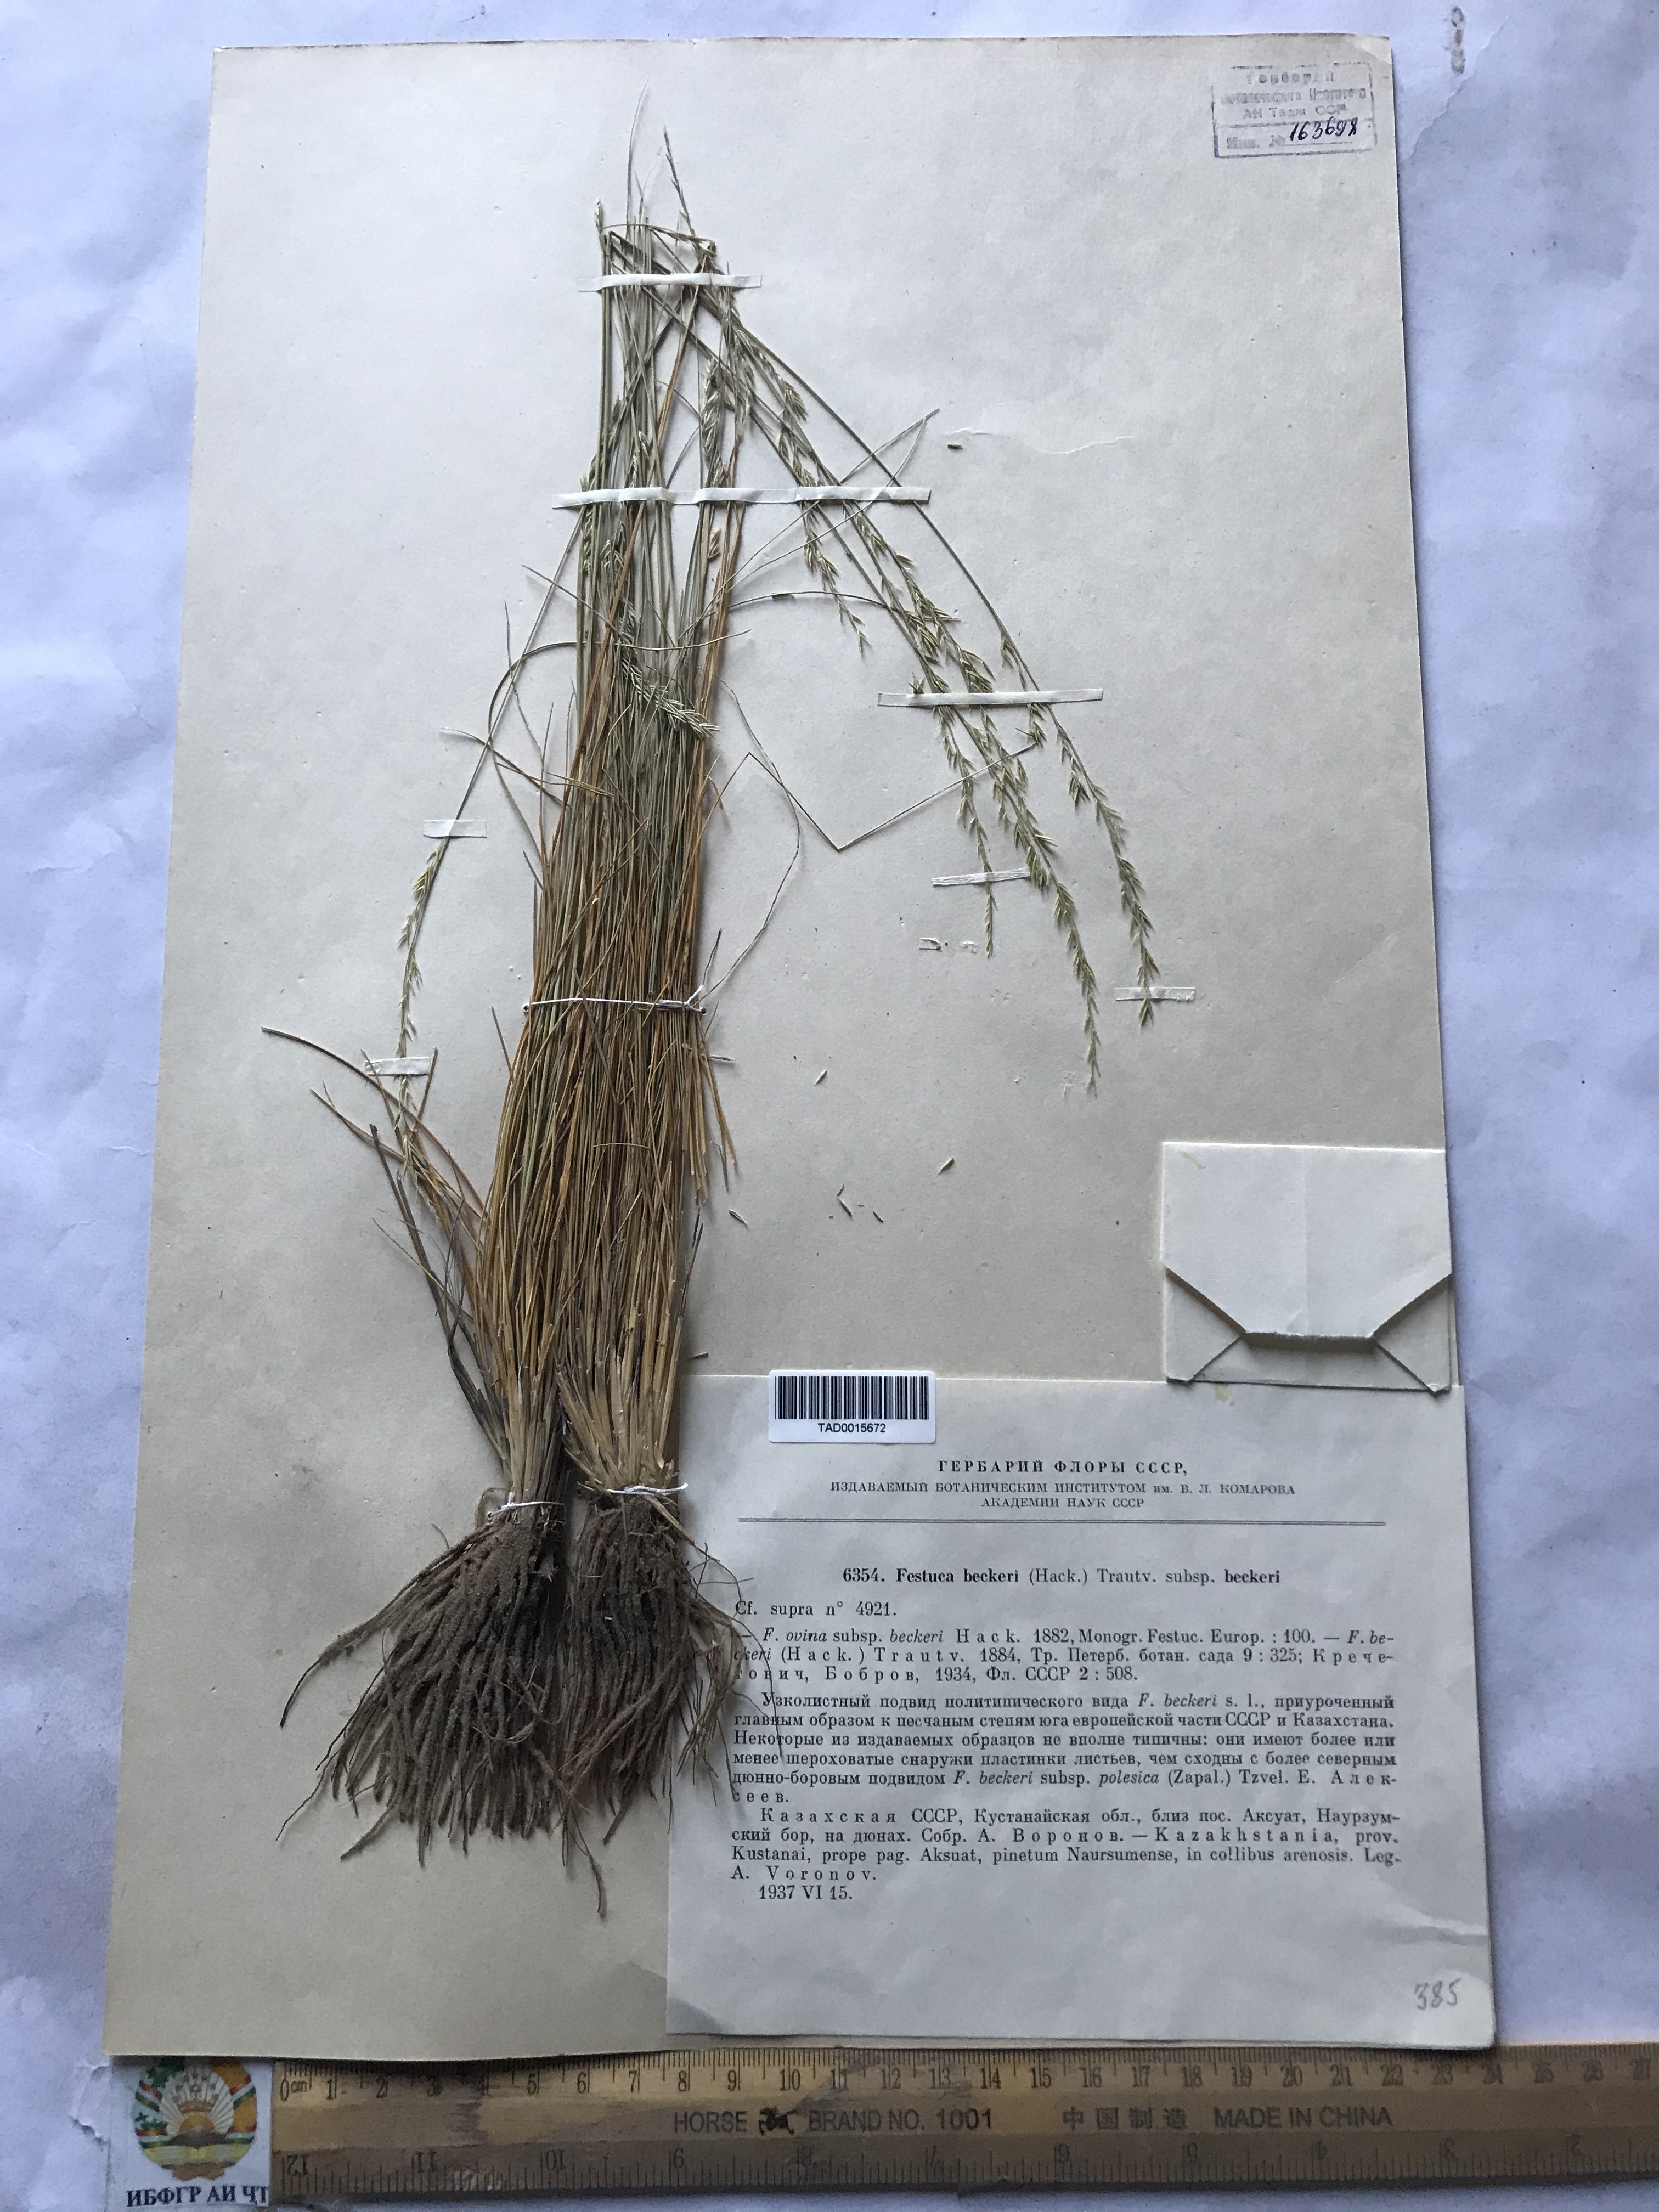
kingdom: Plantae
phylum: Tracheophyta
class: Liliopsida
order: Poales
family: Poaceae
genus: Festuca
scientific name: Festuca beckeri
